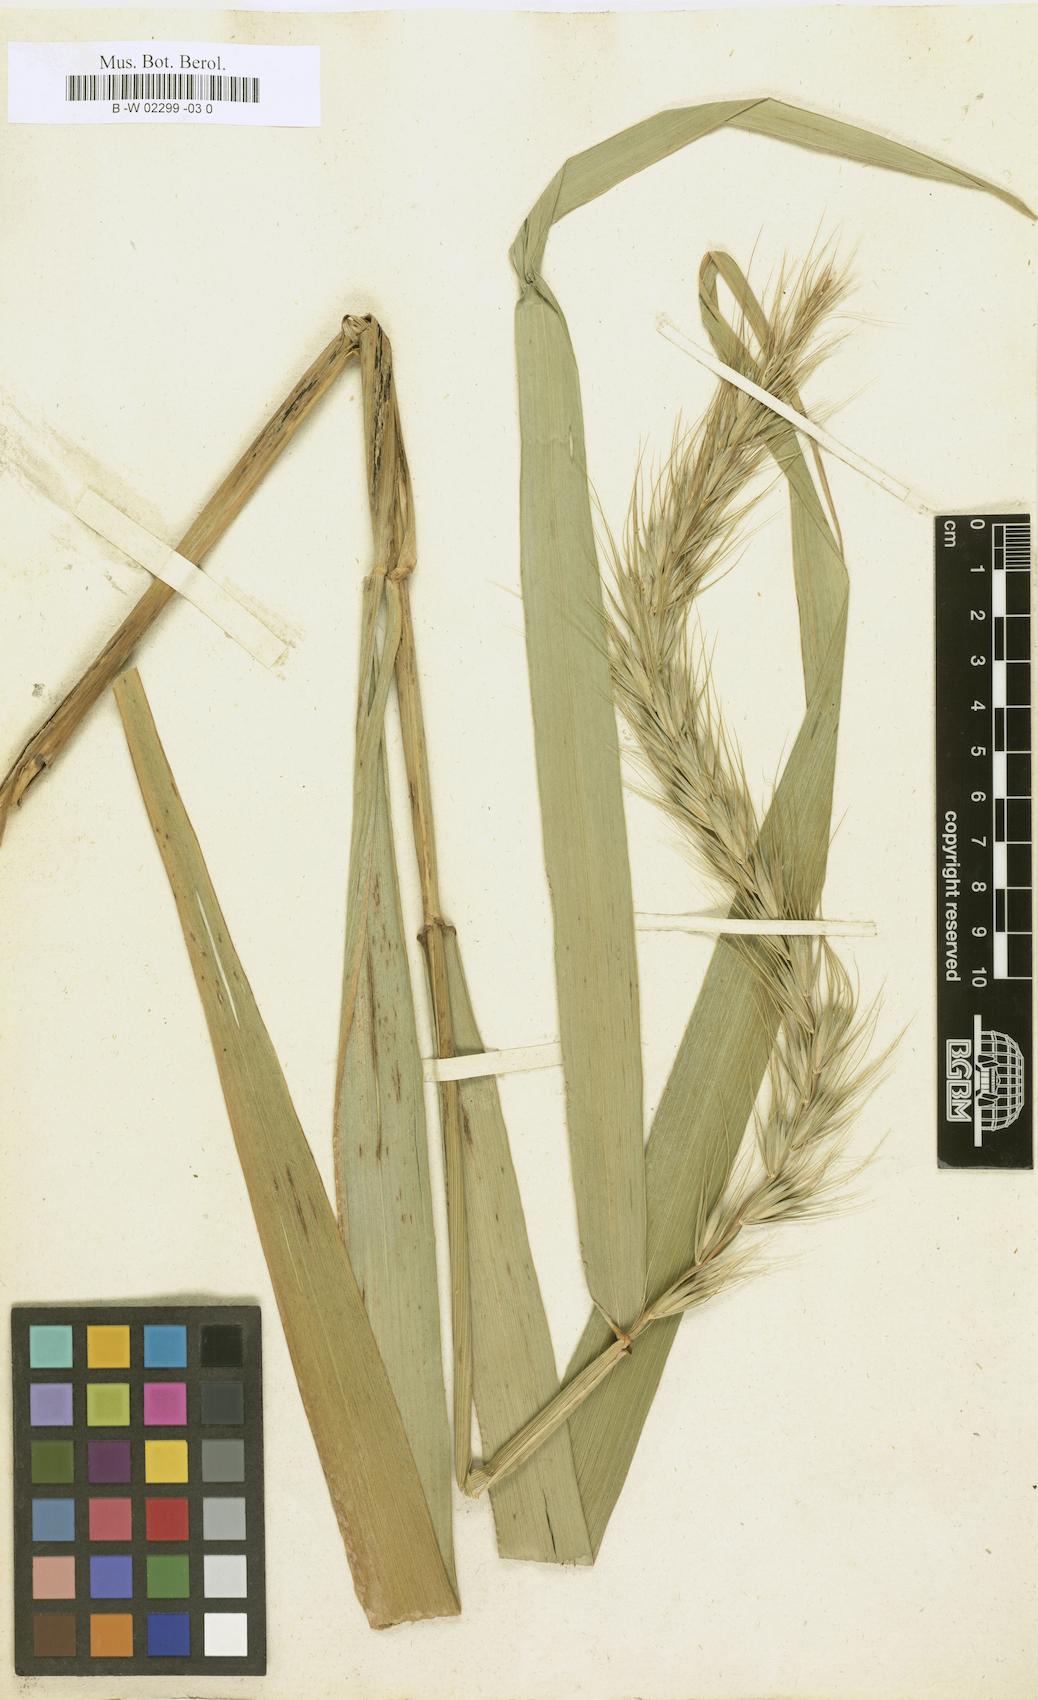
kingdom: Plantae
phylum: Tracheophyta
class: Liliopsida
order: Poales
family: Poaceae
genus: Hordeum
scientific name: Hordeum jubatum
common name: Foxtail barley
